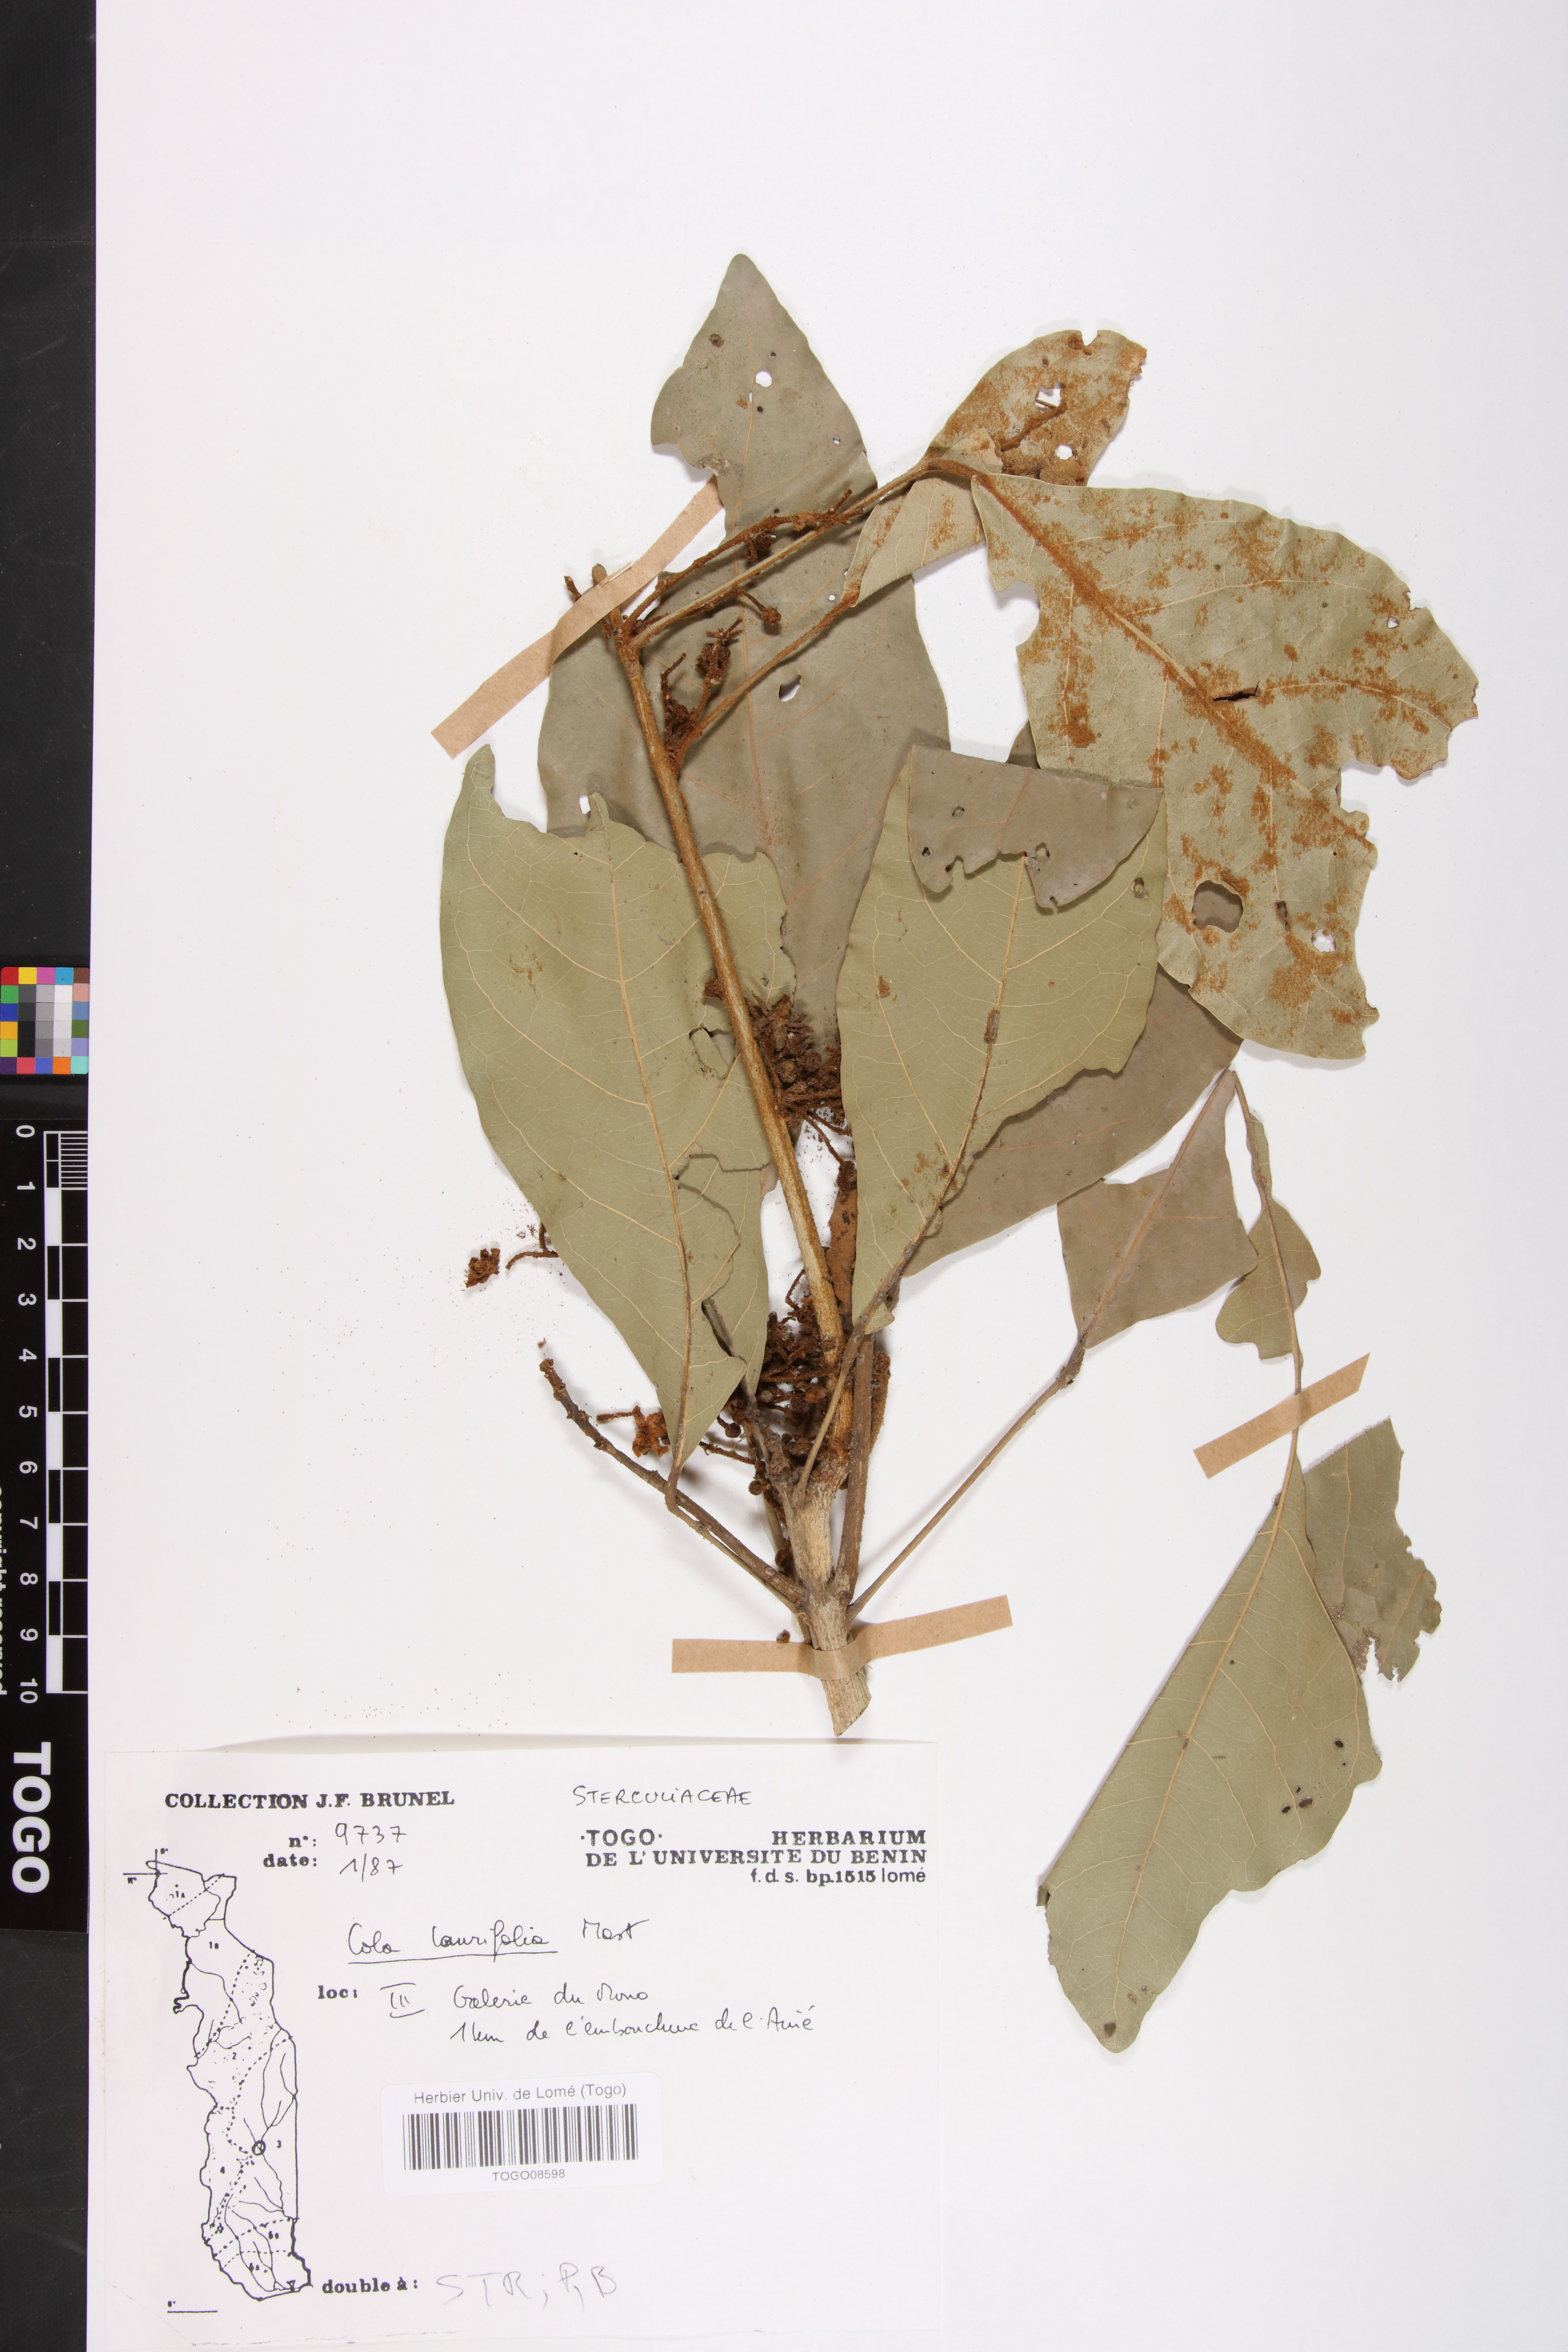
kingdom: Plantae
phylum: Tracheophyta
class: Magnoliopsida
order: Malvales
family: Malvaceae
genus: Cola
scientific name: Cola laurifolia
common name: Laurel-leaved kola
